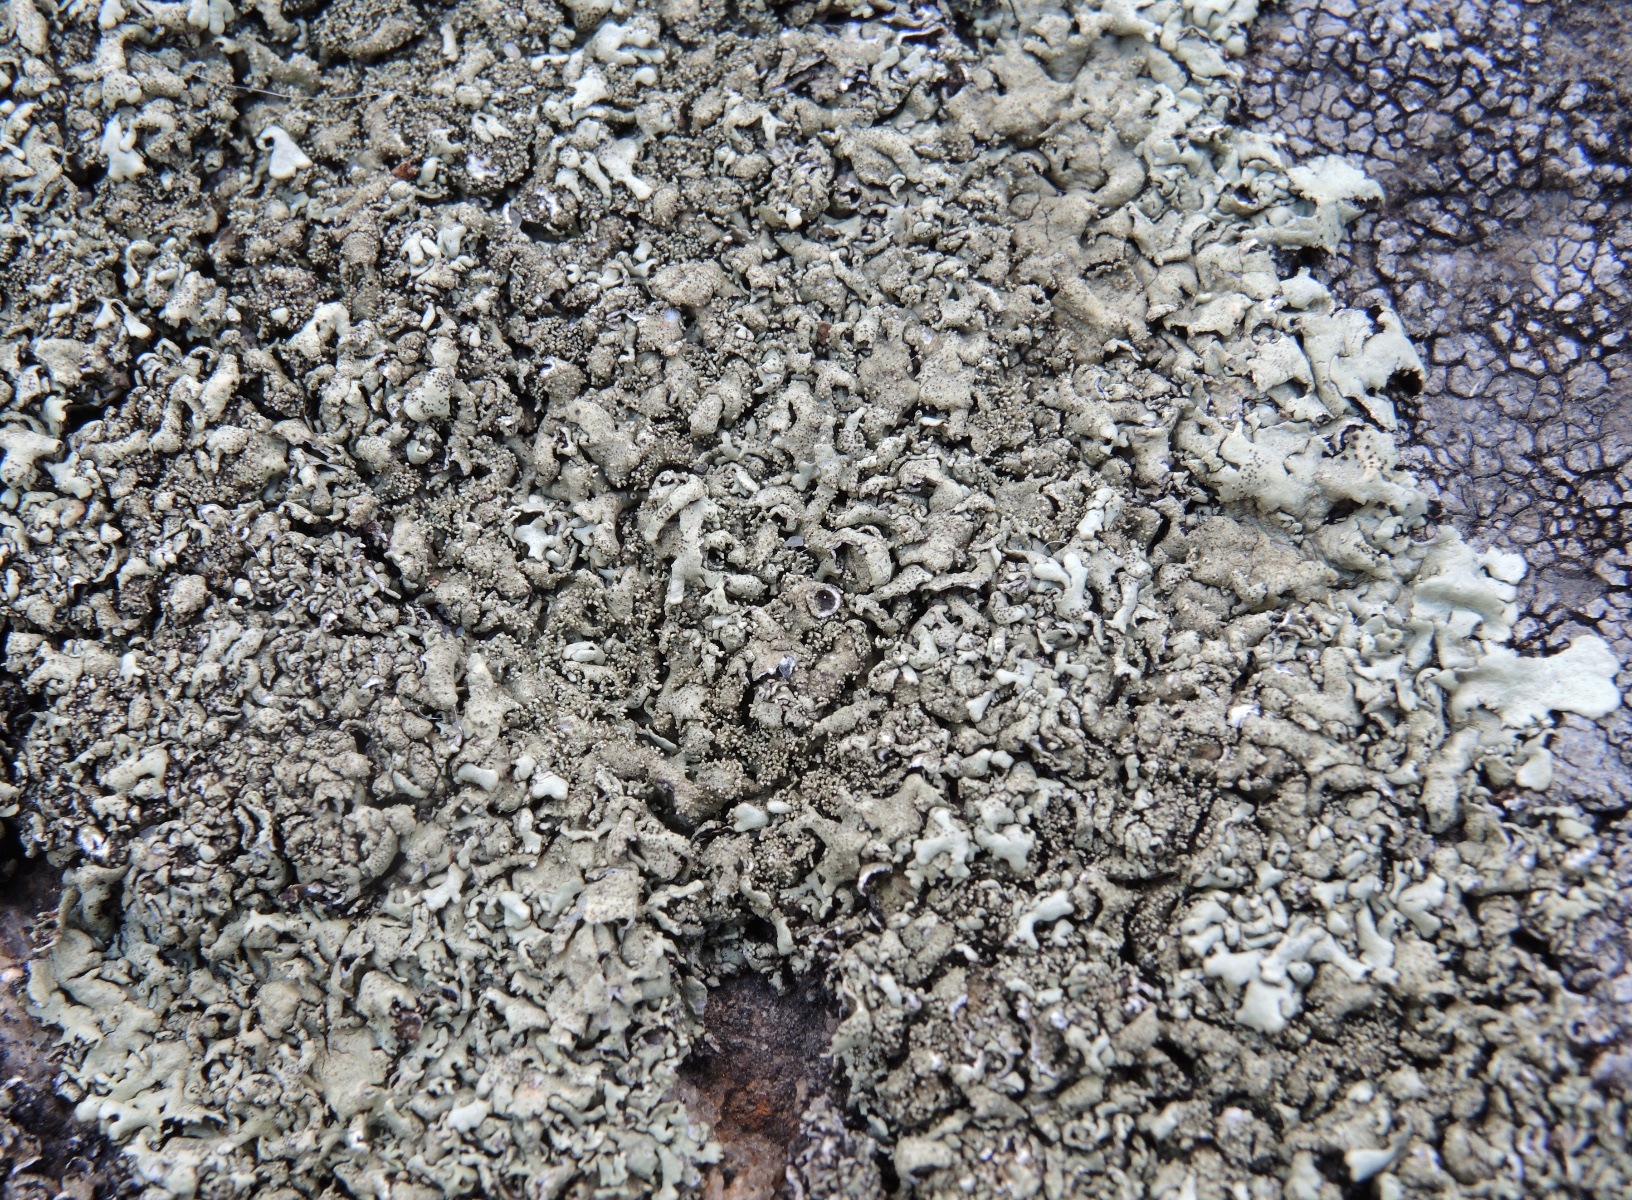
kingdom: Fungi
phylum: Ascomycota
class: Lecanoromycetes
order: Lecanorales
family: Parmeliaceae
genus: Xanthoparmelia
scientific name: Xanthoparmelia conspersa
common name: messing-skållav
